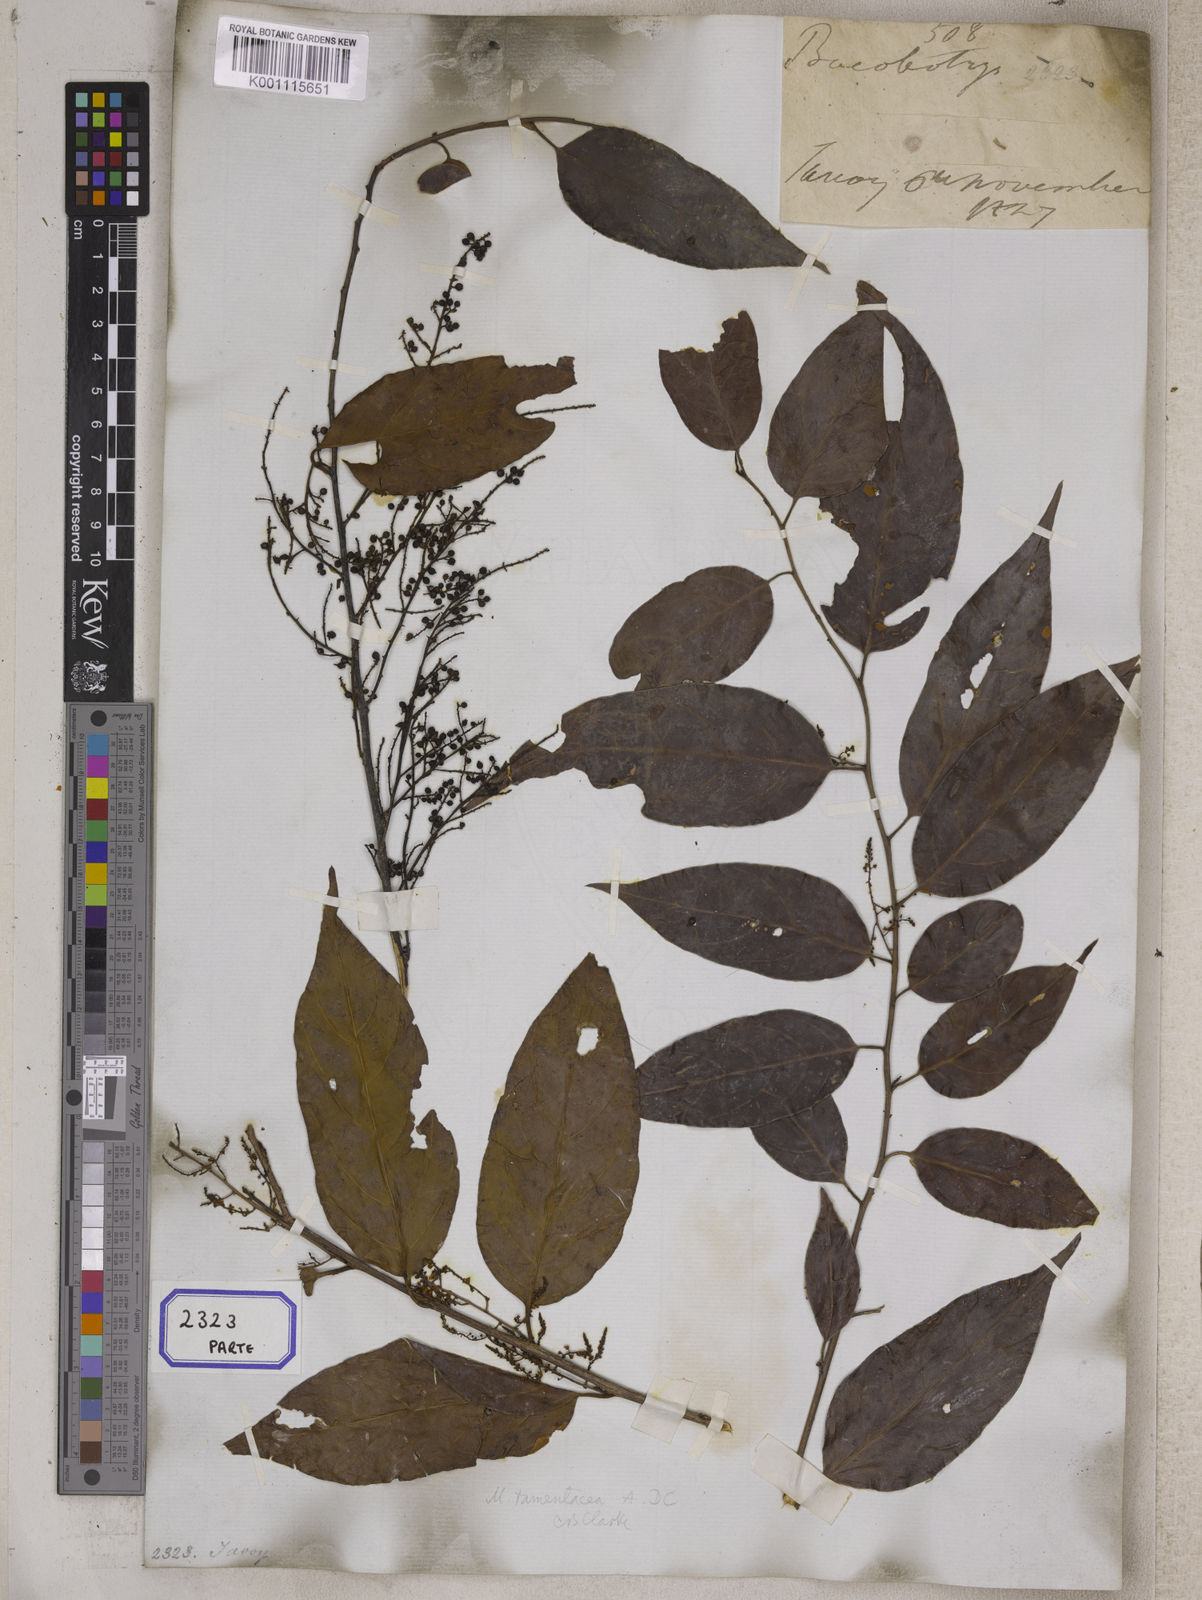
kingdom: Plantae
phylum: Tracheophyta
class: Magnoliopsida
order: Ericales
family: Primulaceae
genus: Maesa
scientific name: Maesa
